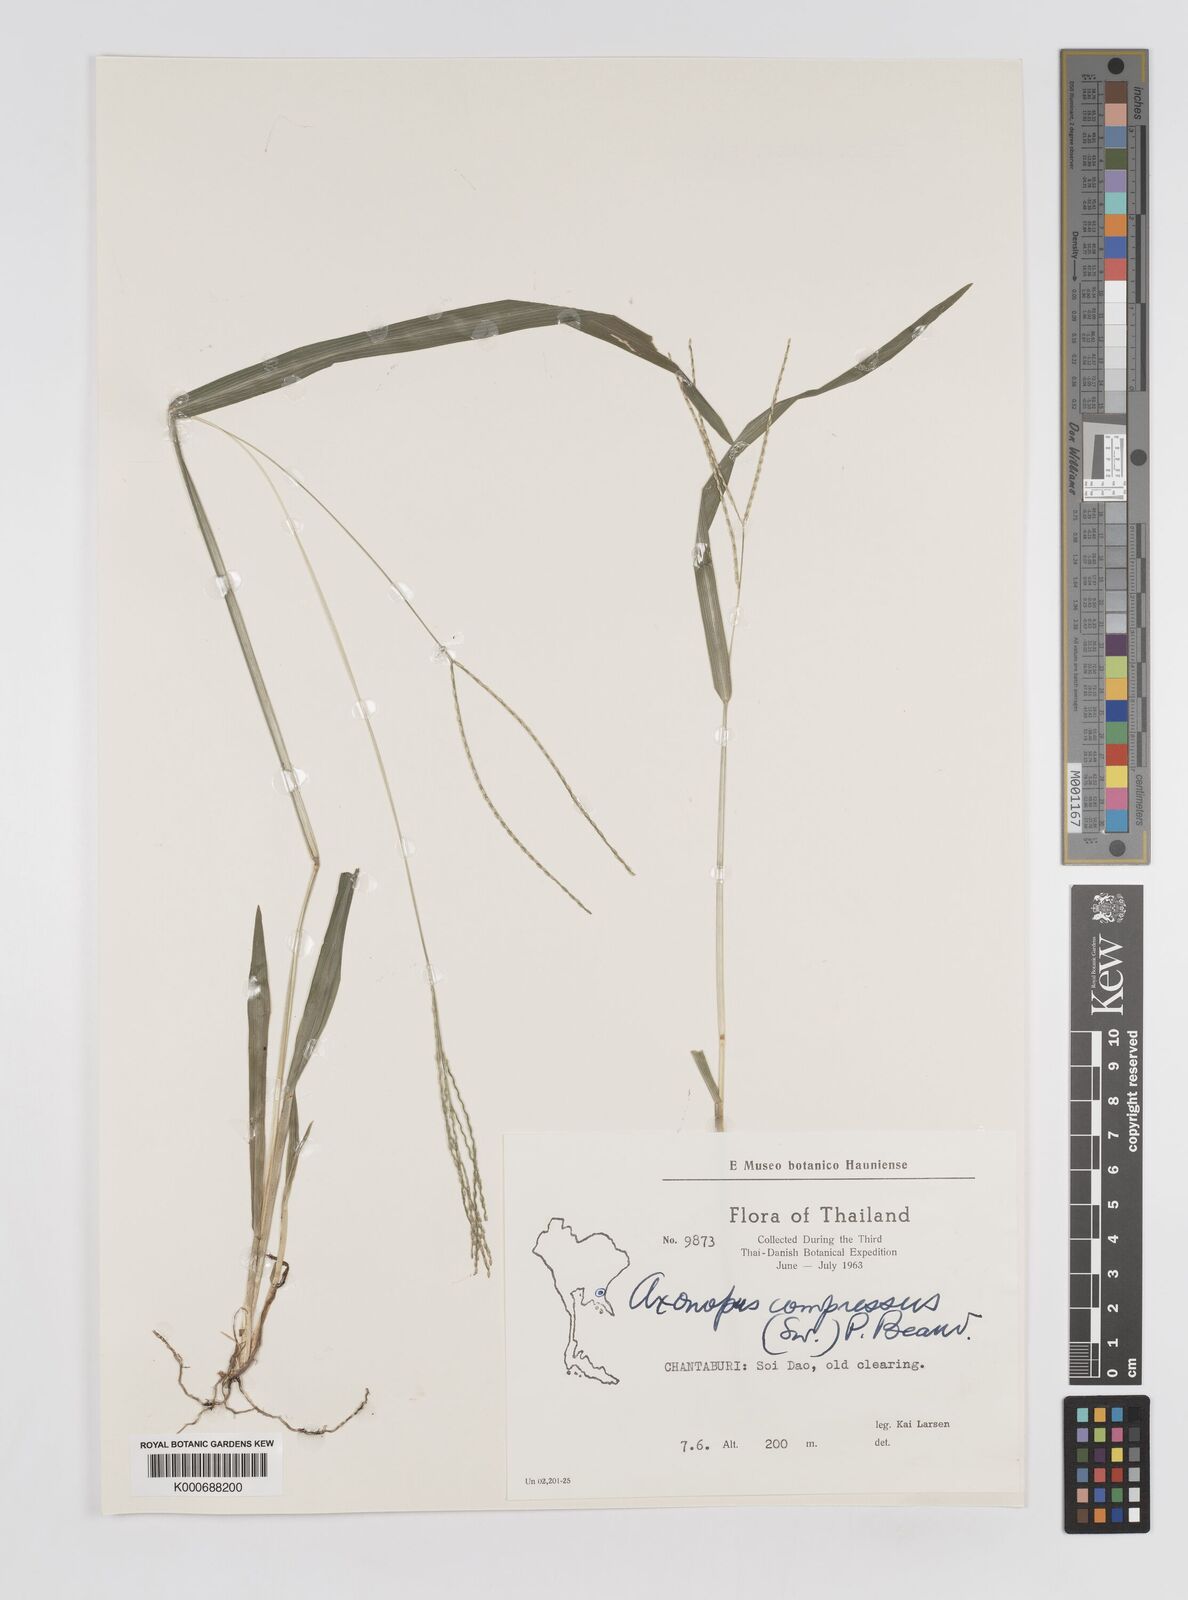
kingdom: Plantae
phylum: Tracheophyta
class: Liliopsida
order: Poales
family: Poaceae
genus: Axonopus
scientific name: Axonopus compressus
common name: American carpet grass
